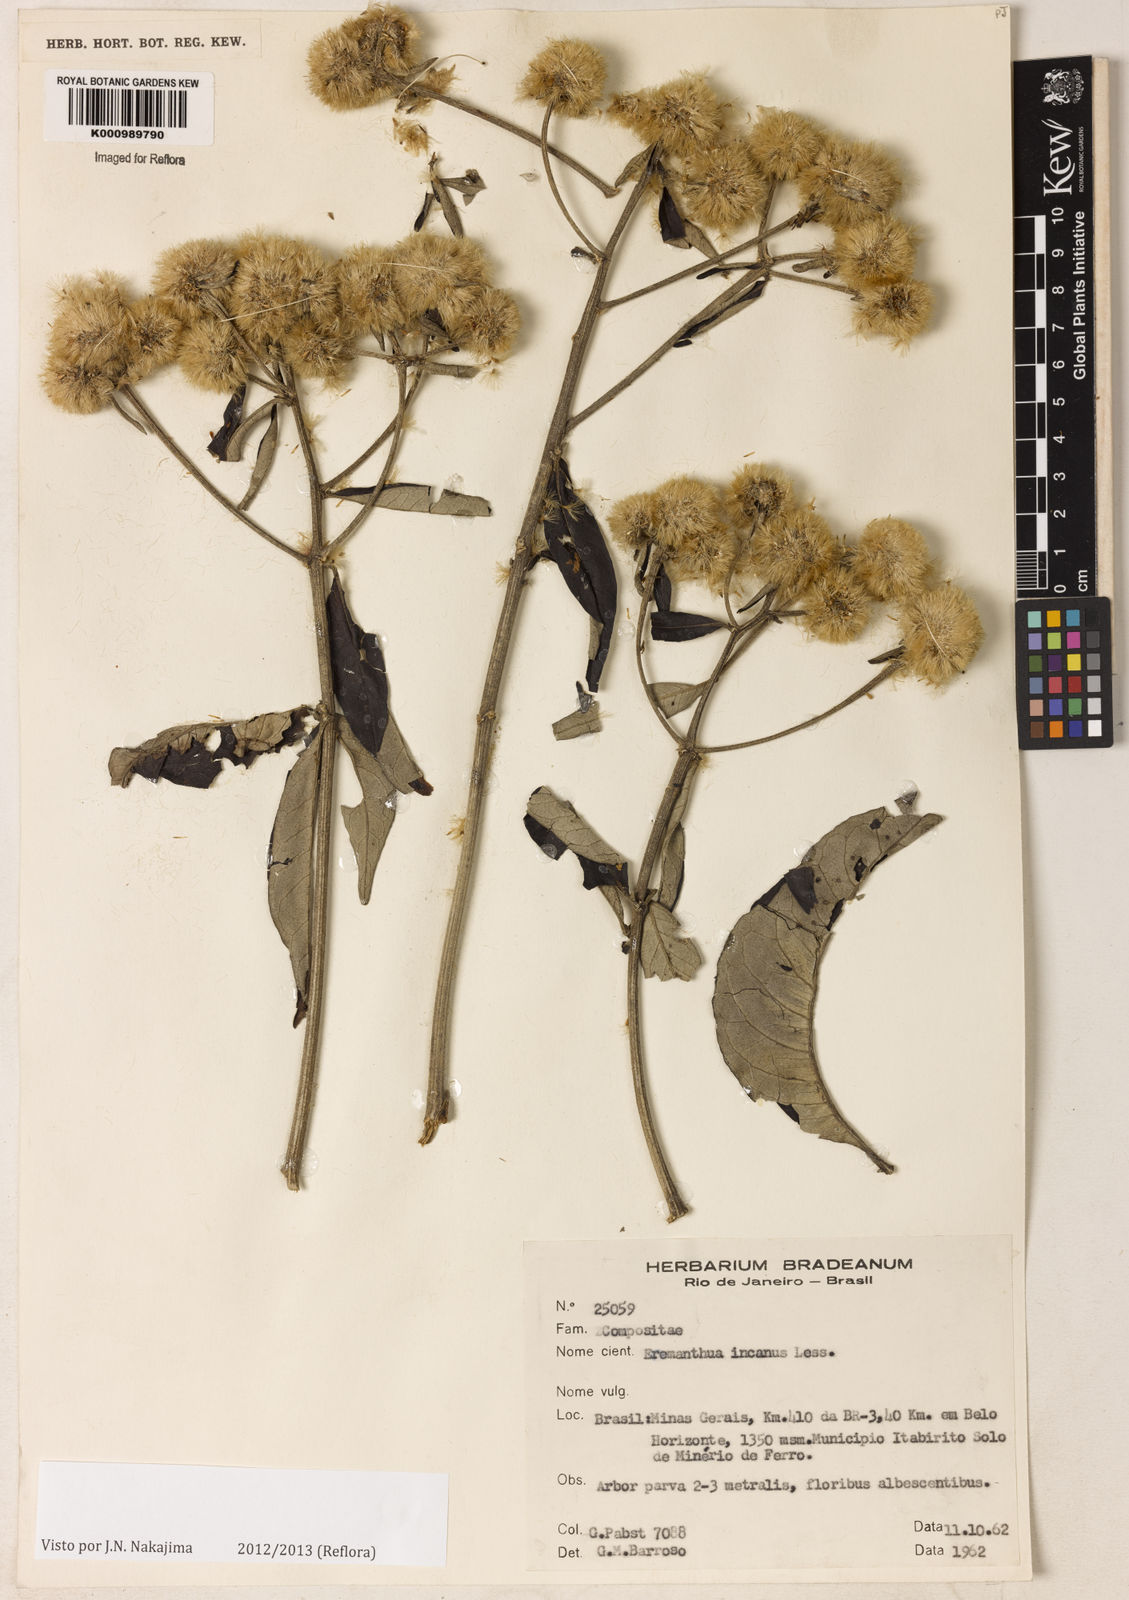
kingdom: Plantae
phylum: Tracheophyta
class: Magnoliopsida
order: Asterales
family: Asteraceae
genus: Eremanthus
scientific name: Eremanthus incanus
